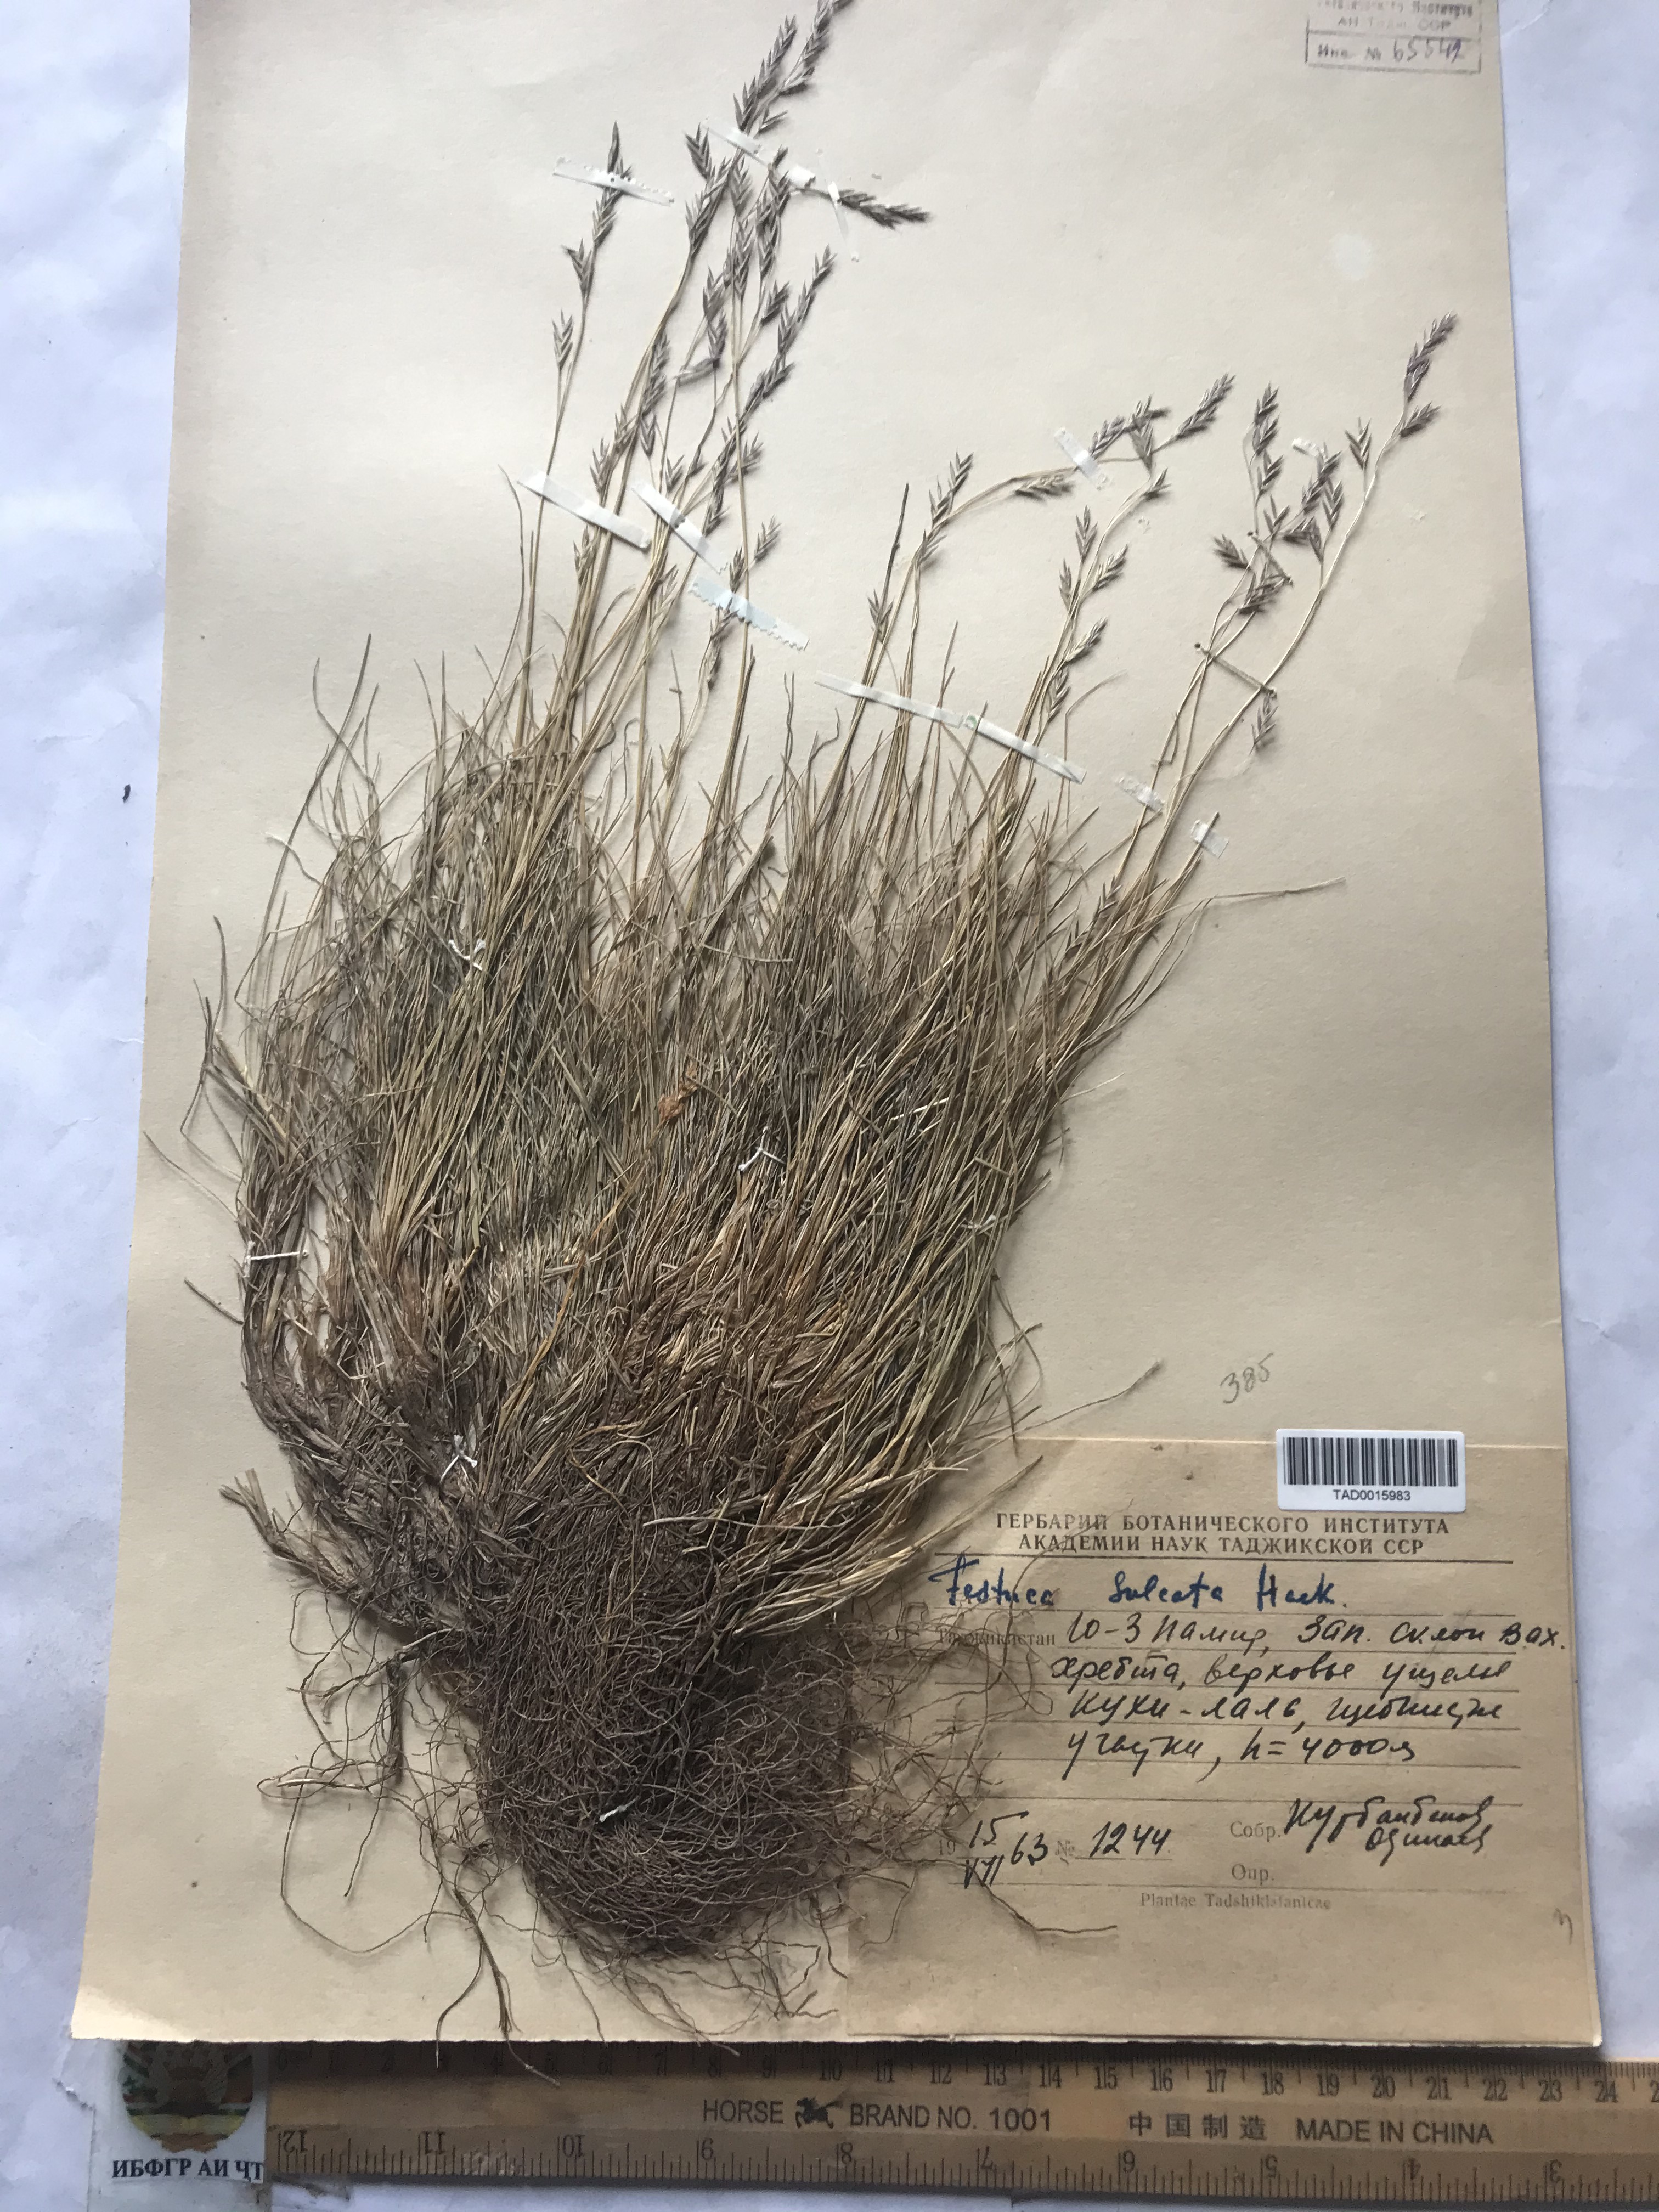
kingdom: Plantae
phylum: Tracheophyta
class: Liliopsida
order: Poales
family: Poaceae
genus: Festuca
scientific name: Festuca sulcata
